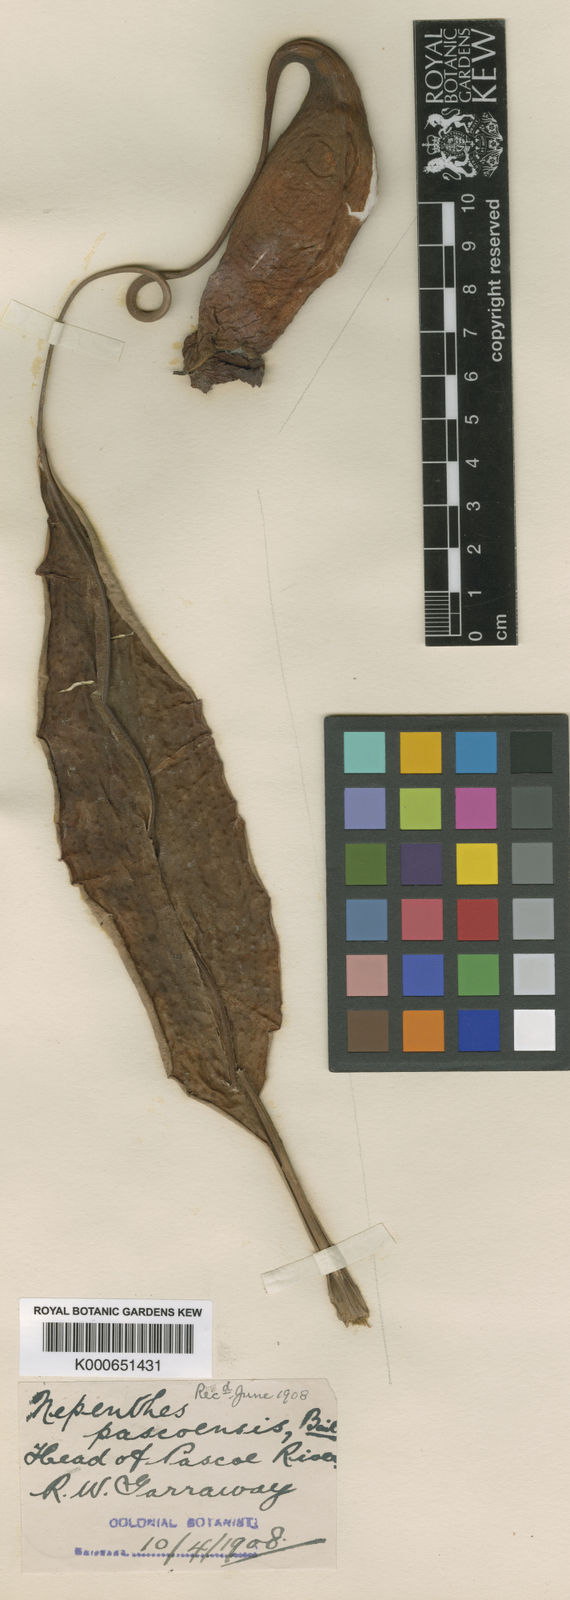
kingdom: Plantae
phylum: Tracheophyta
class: Magnoliopsida
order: Caryophyllales
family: Nepenthaceae
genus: Nepenthes
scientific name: Nepenthes mirabilis
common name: Tropical pitcherplant
